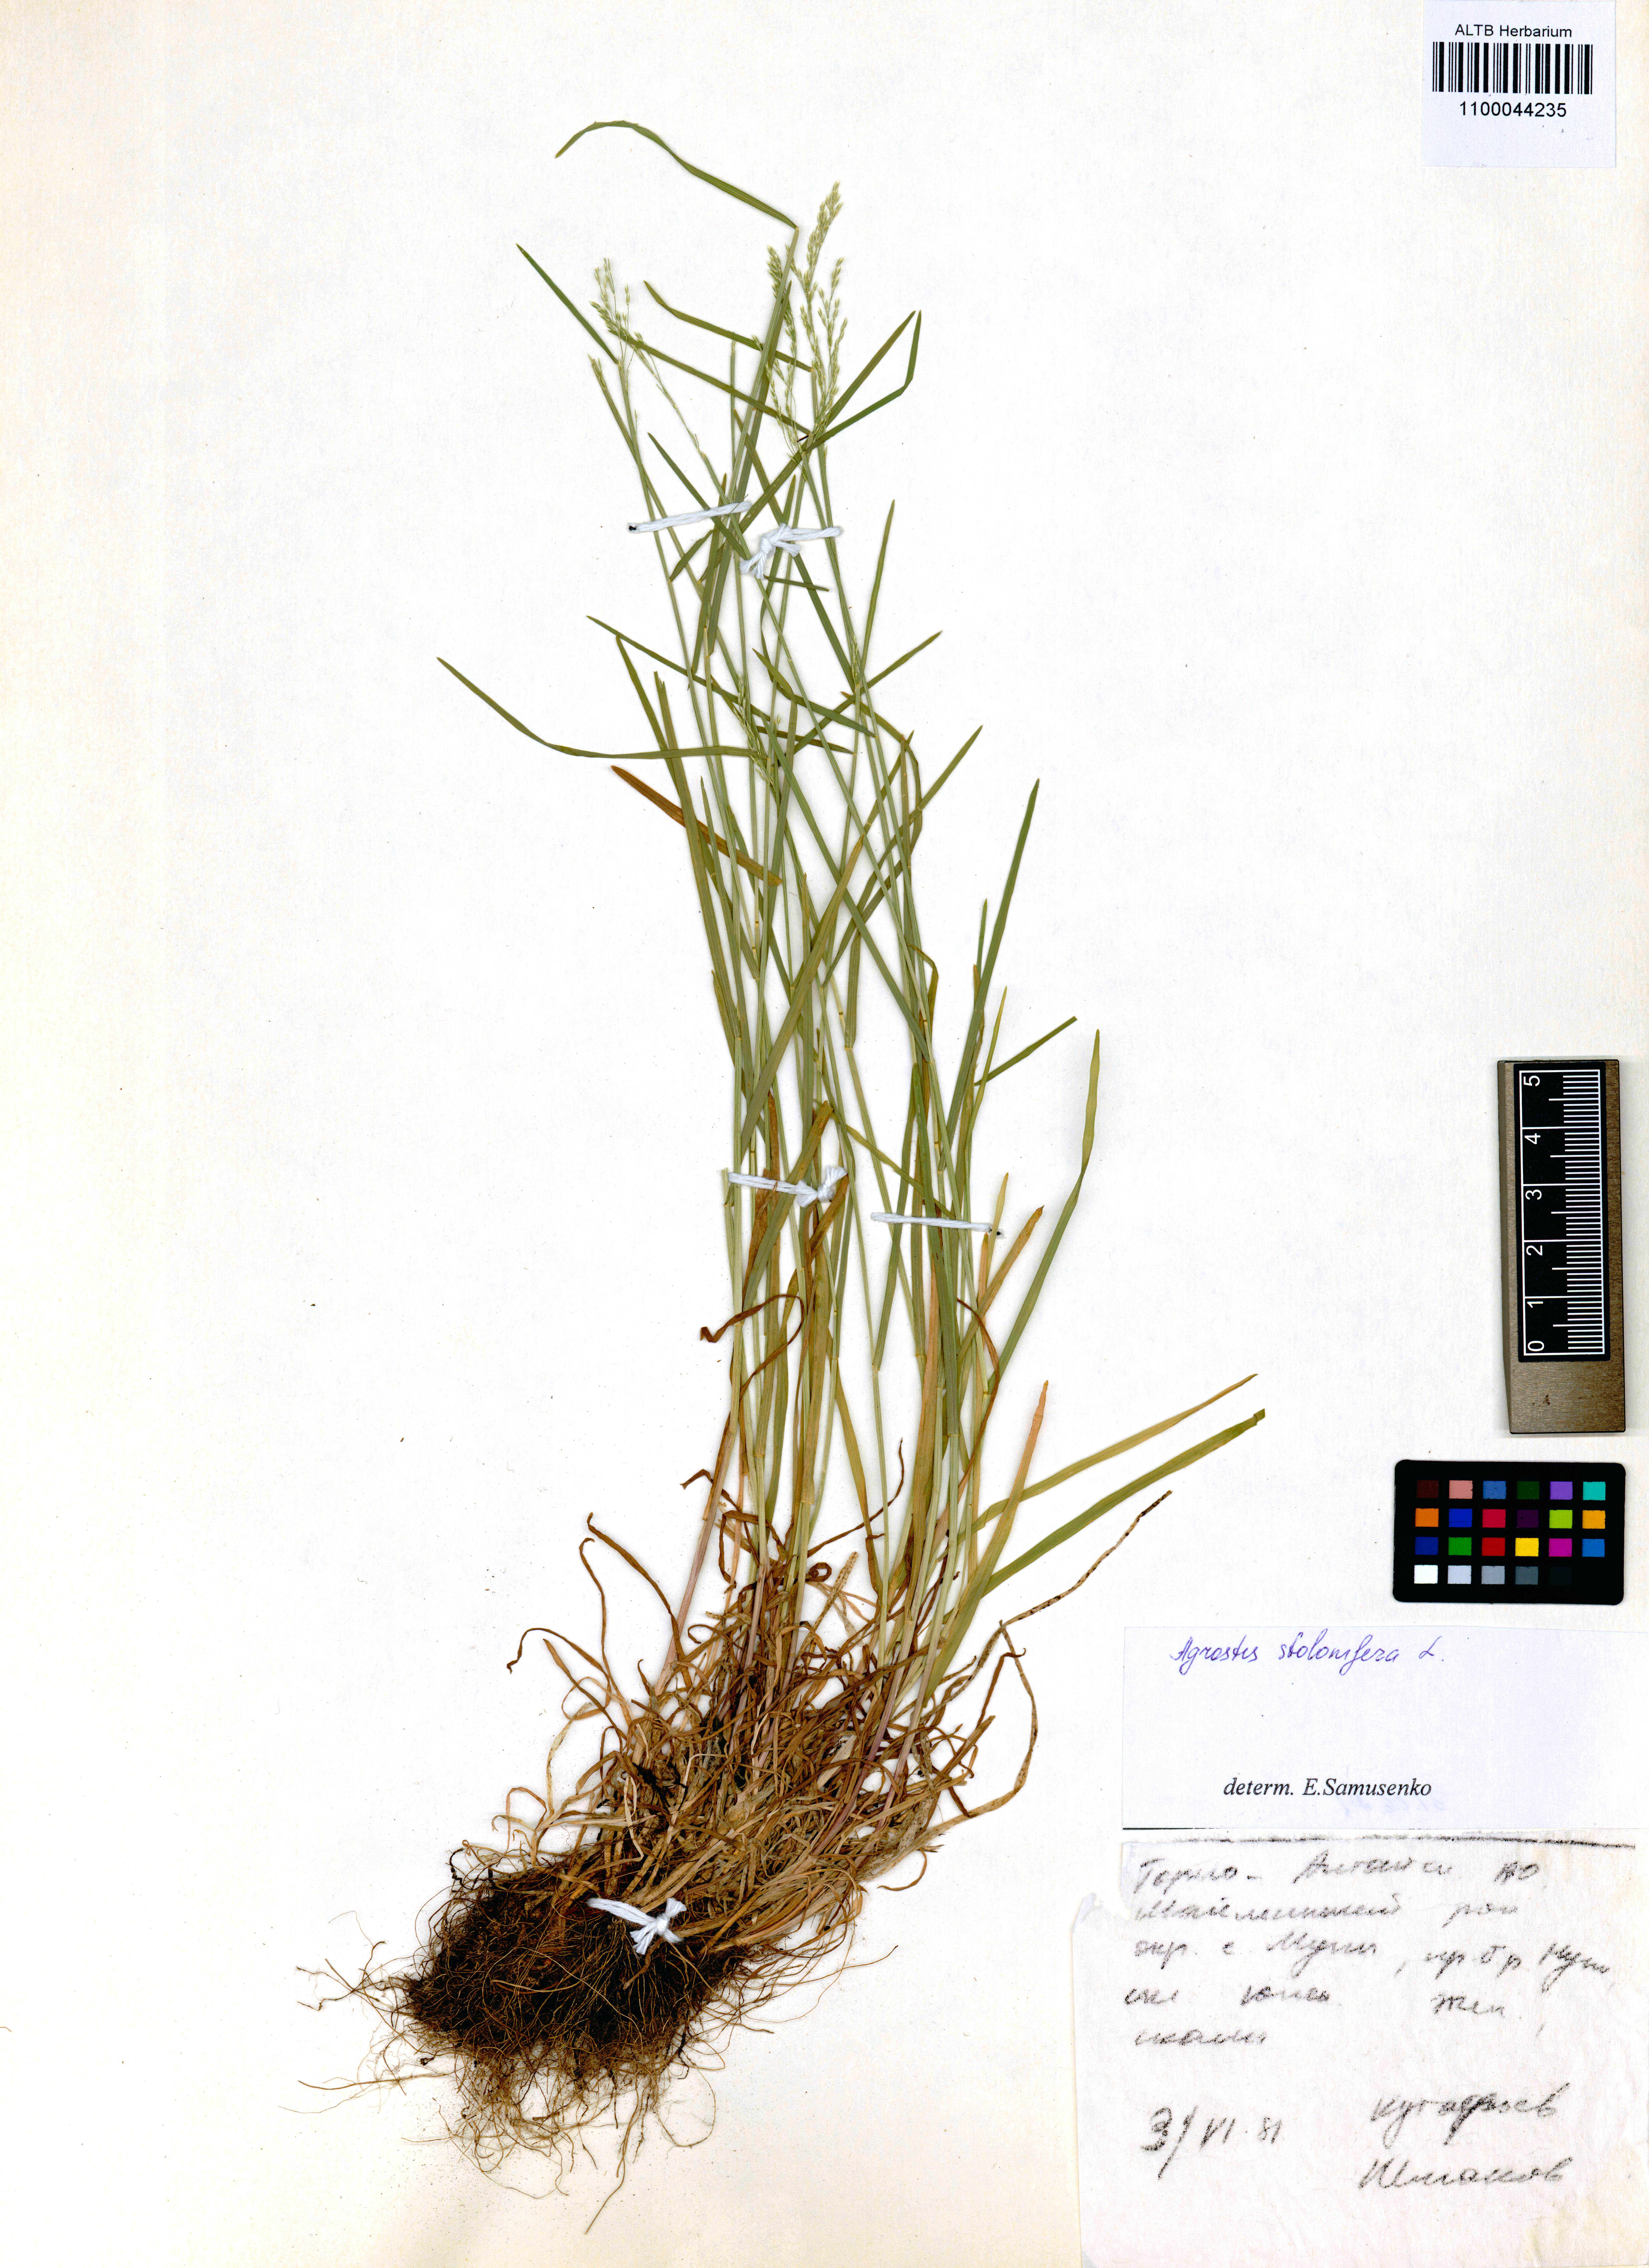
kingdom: Plantae
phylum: Tracheophyta
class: Liliopsida
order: Poales
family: Poaceae
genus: Agrostis
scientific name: Agrostis stolonifera
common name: Creeping bentgrass
